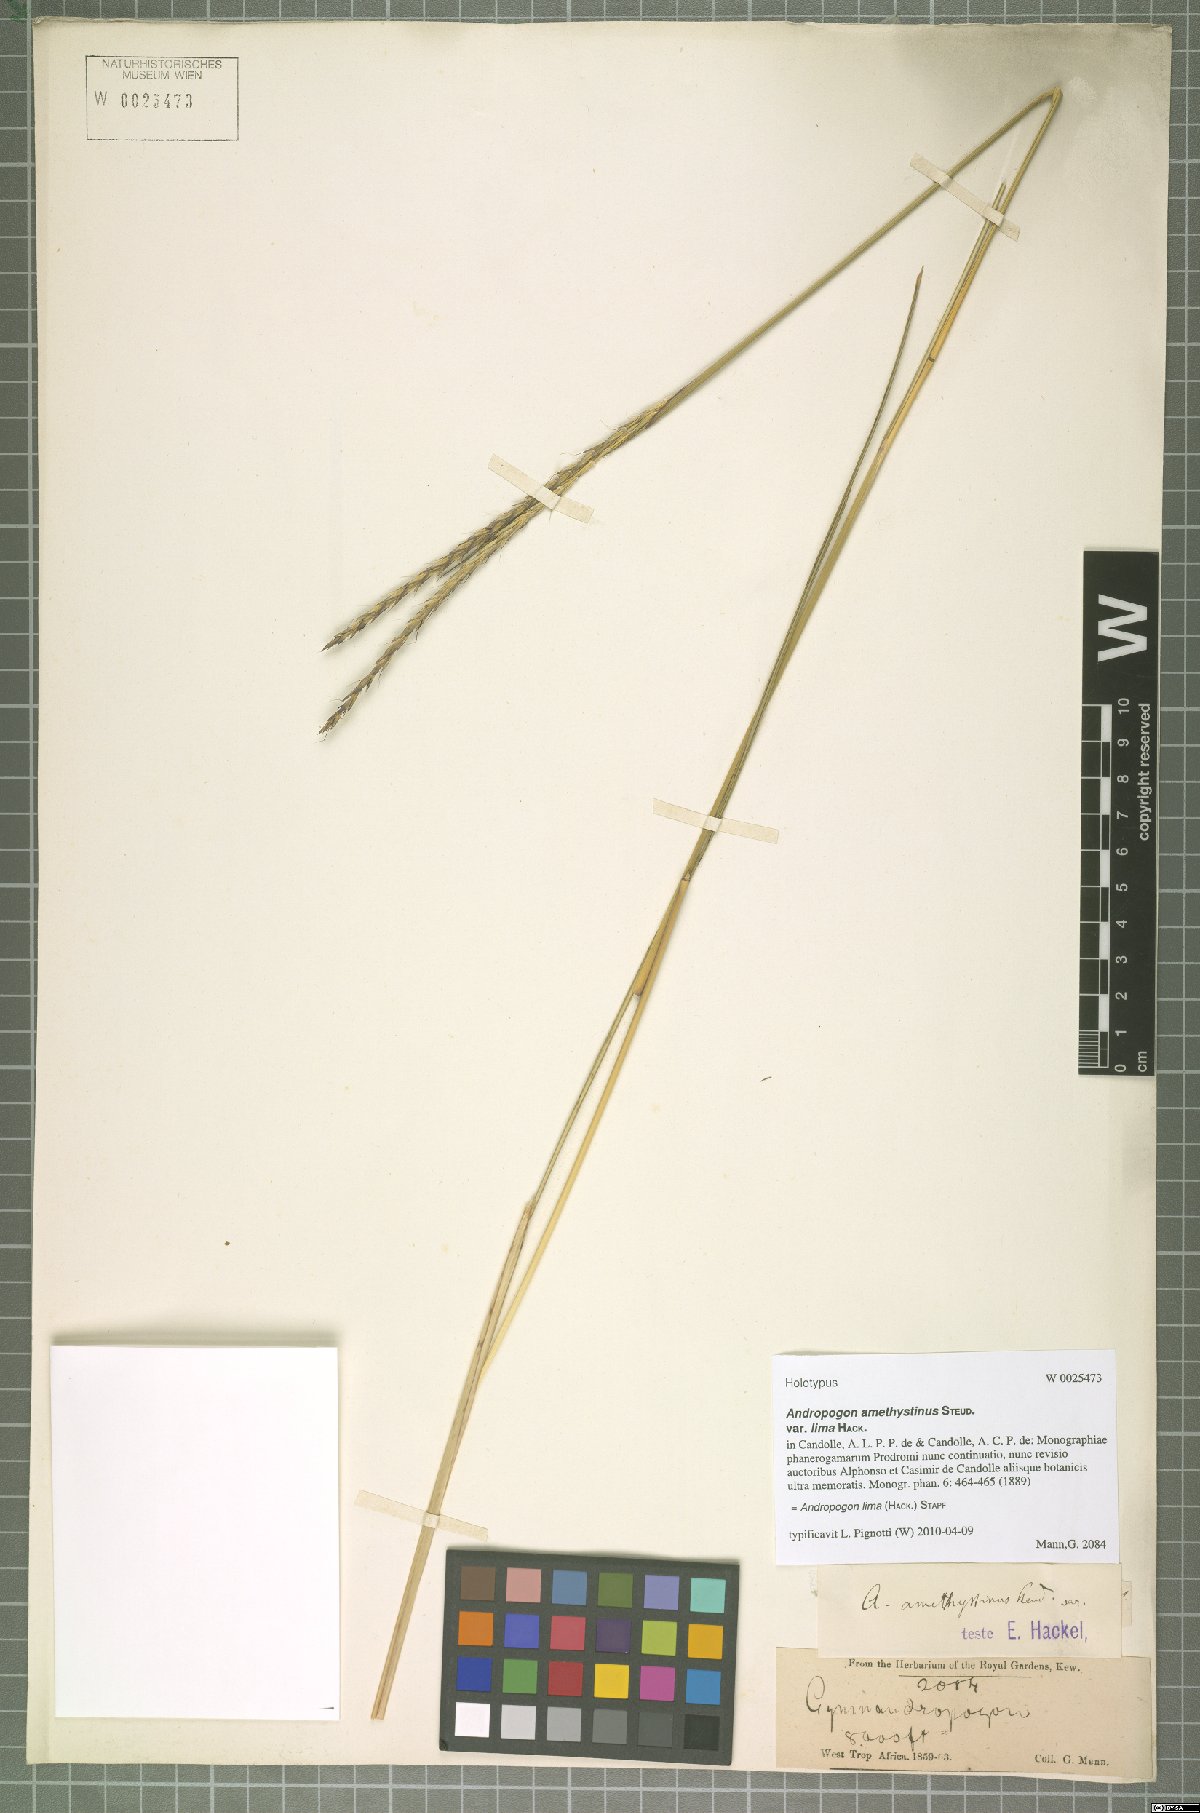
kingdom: Plantae
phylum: Tracheophyta
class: Liliopsida
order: Poales
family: Poaceae
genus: Andropogon
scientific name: Andropogon lima
